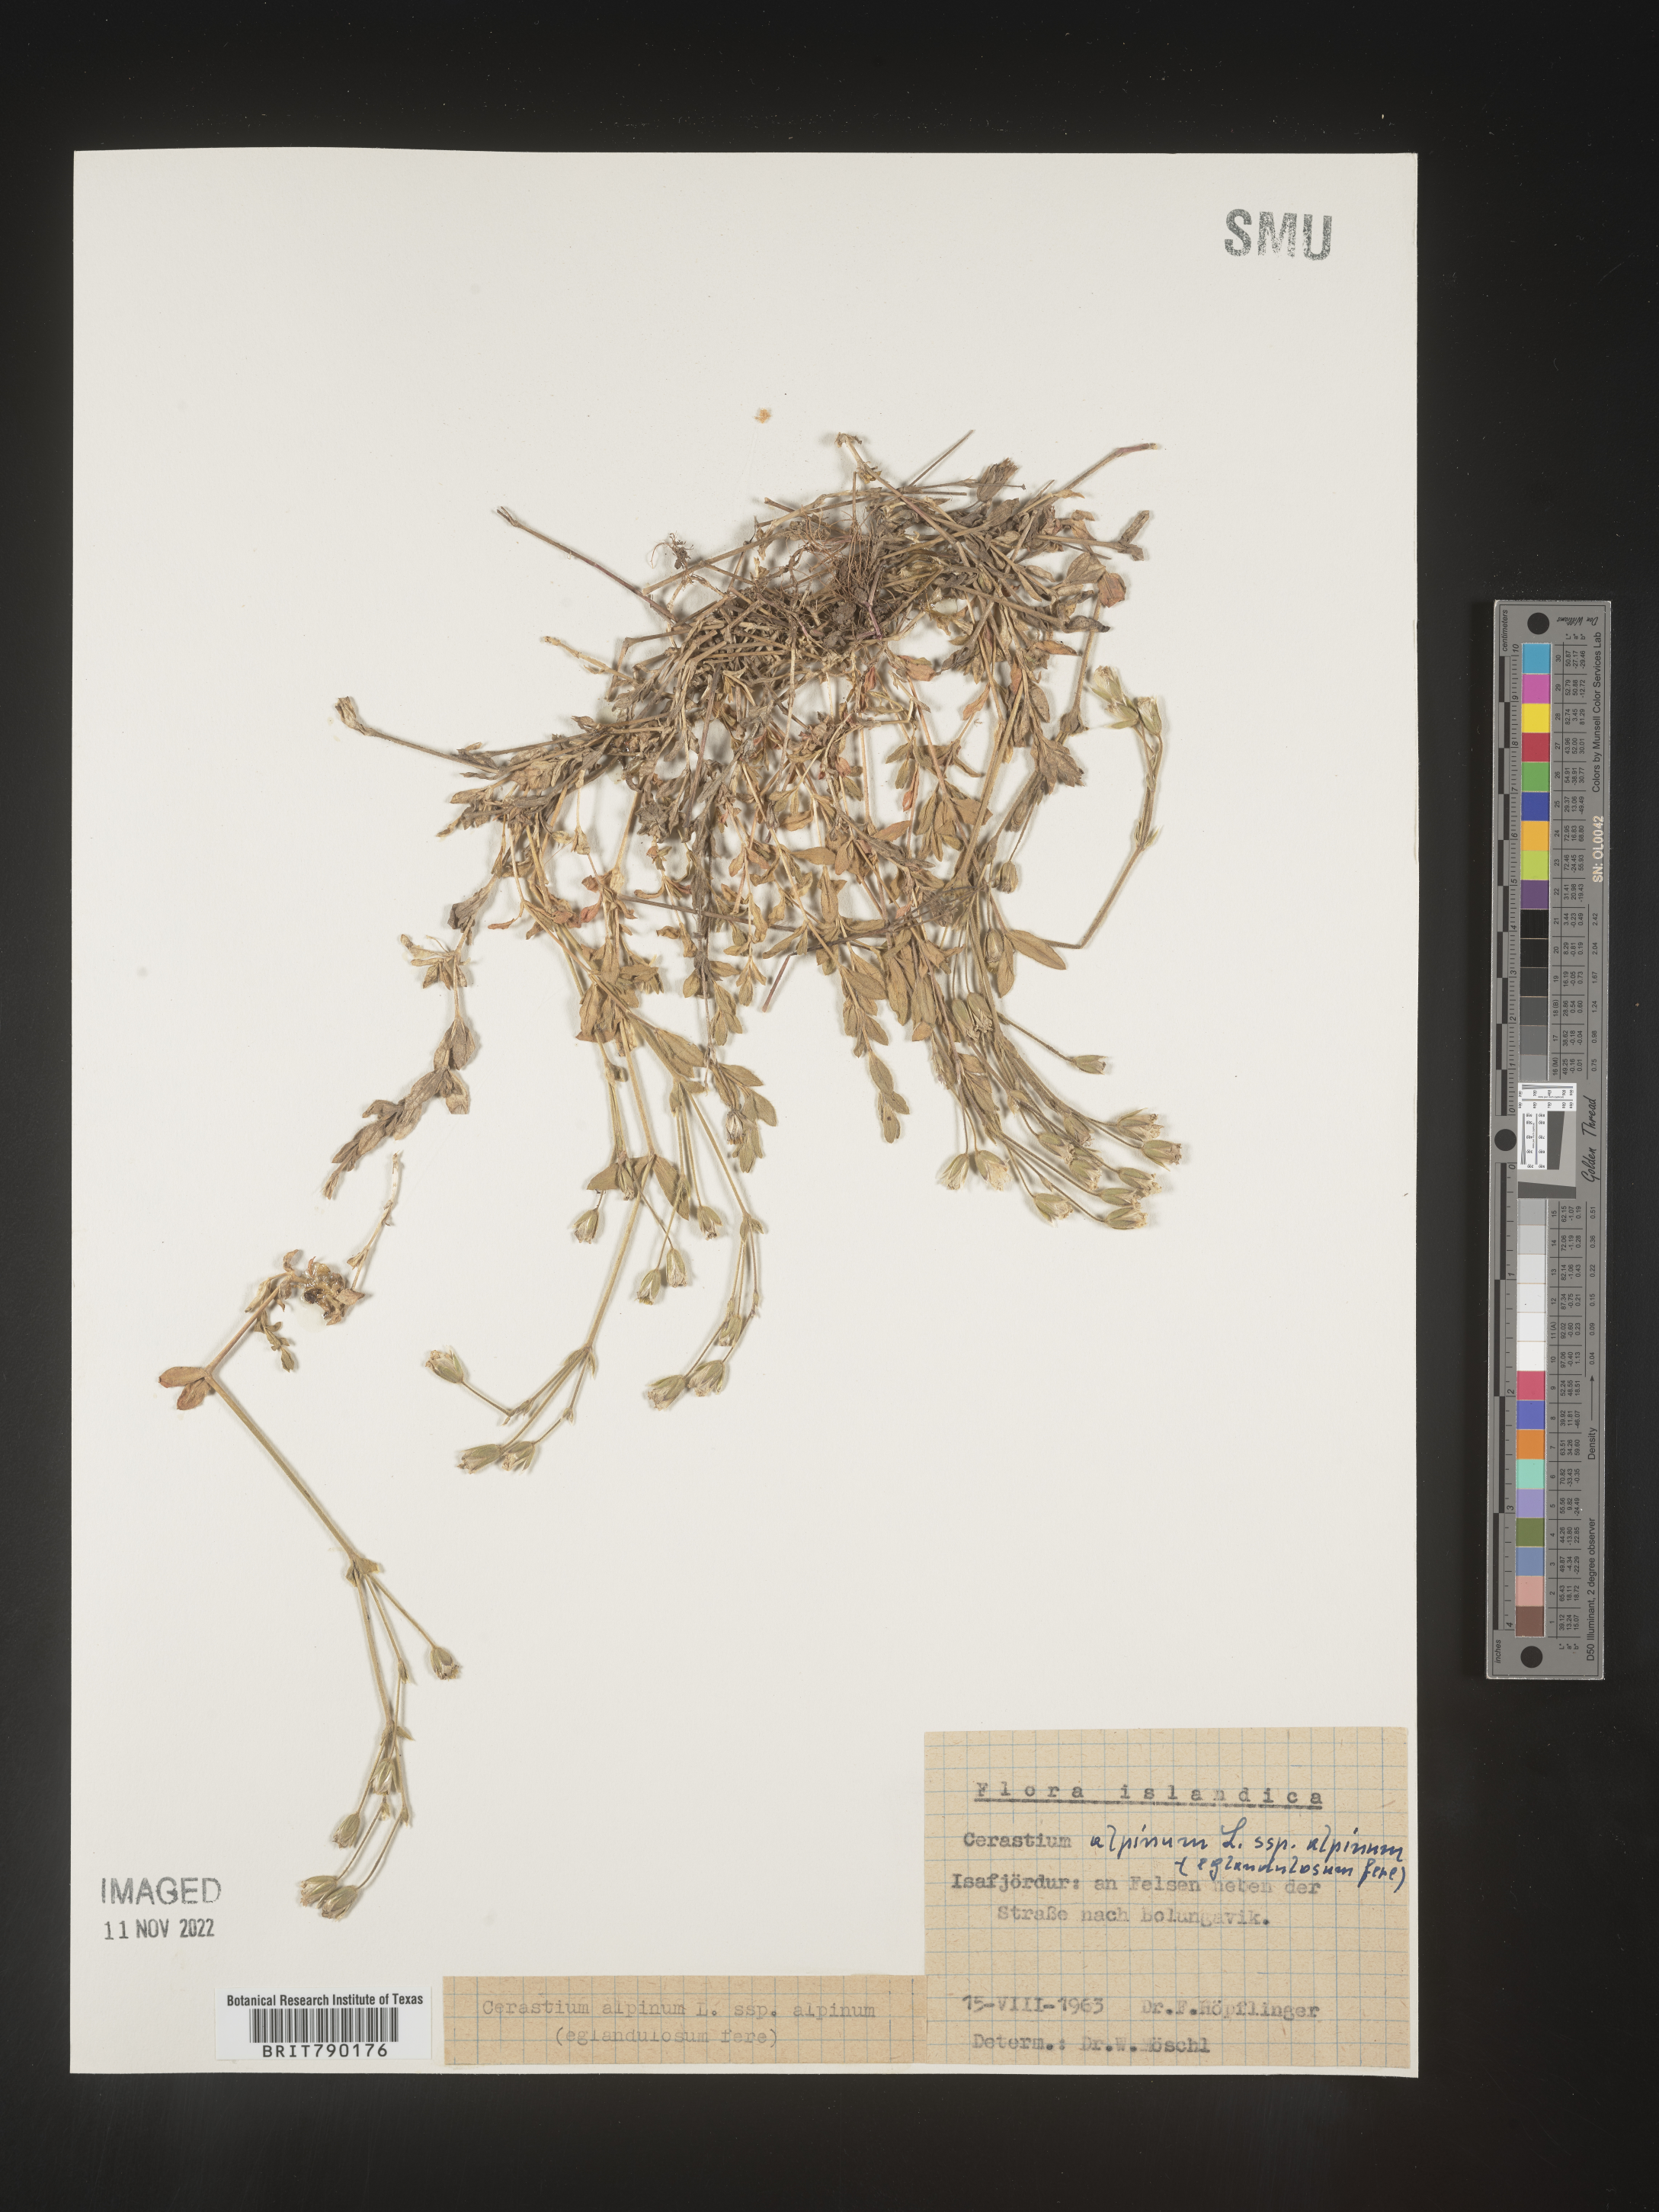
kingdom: Plantae
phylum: Tracheophyta
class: Magnoliopsida
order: Caryophyllales
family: Caryophyllaceae
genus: Cerastium
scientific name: Cerastium
